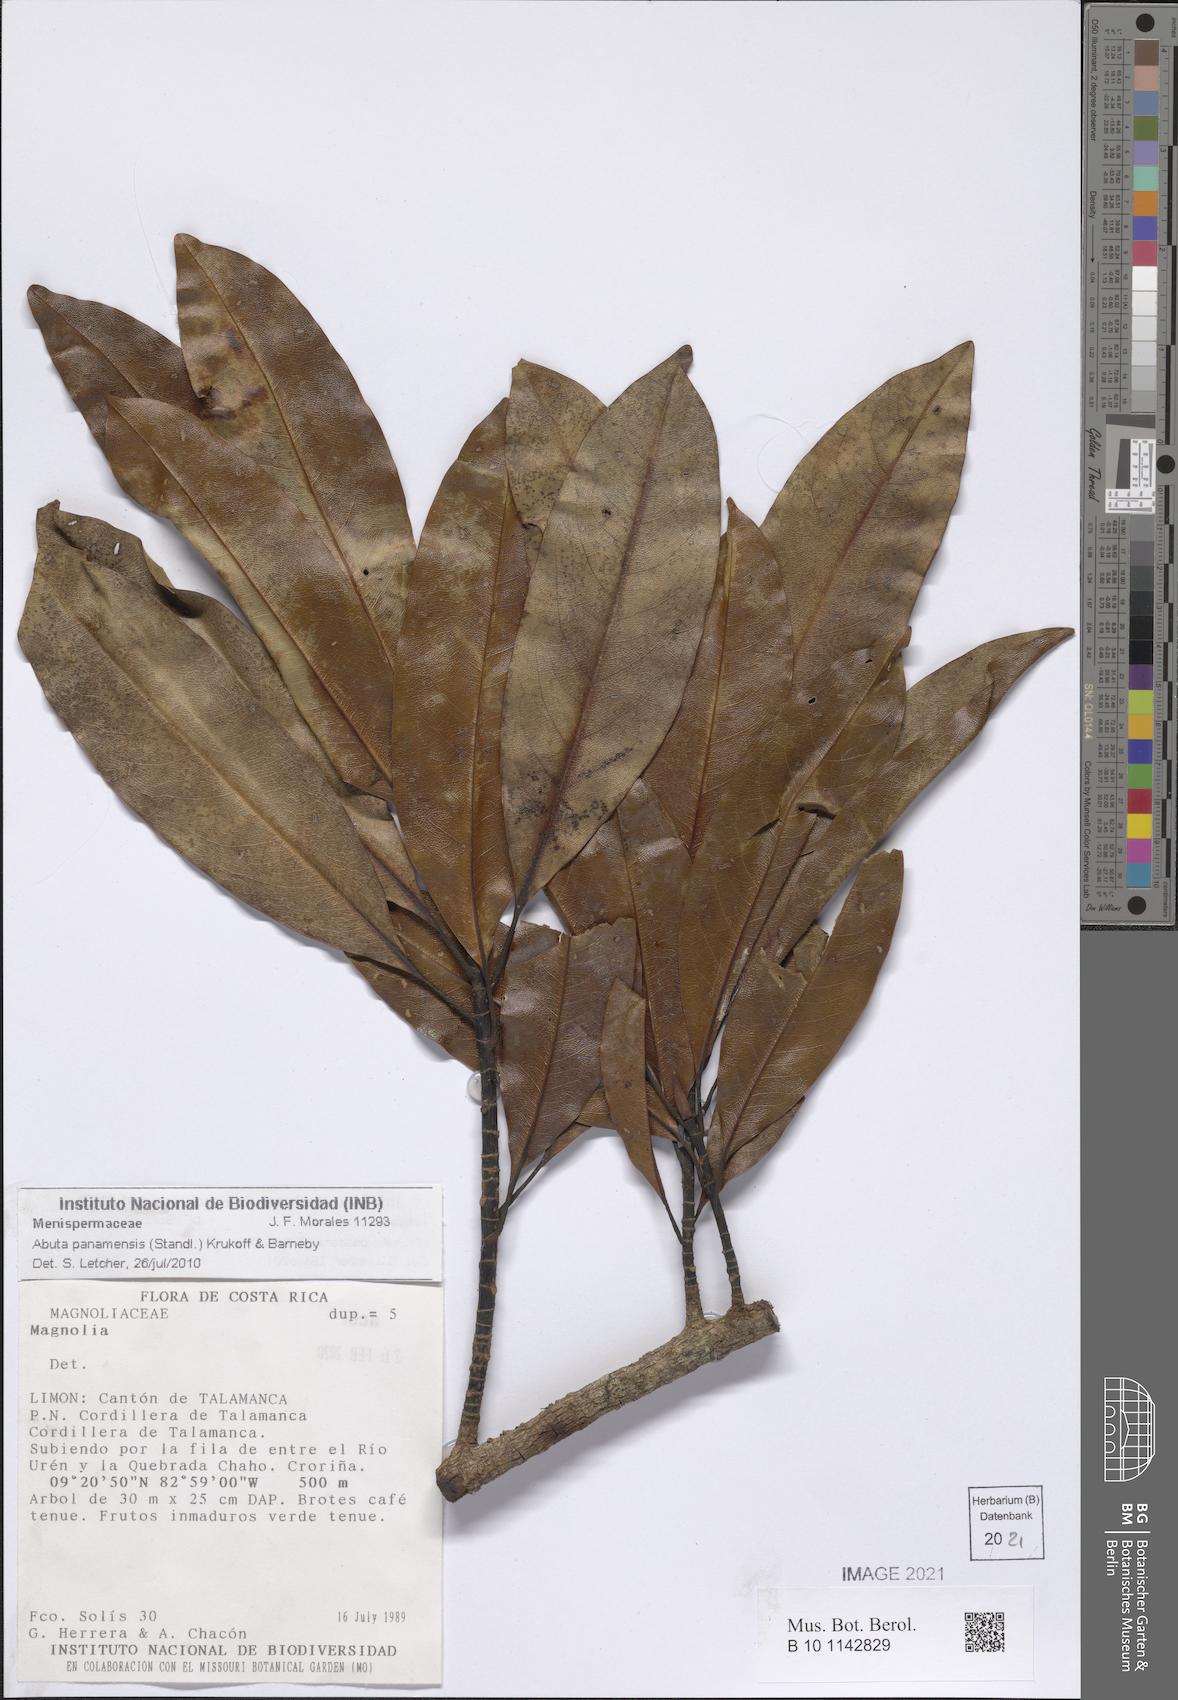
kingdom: Plantae
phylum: Tracheophyta
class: Magnoliopsida
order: Ranunculales
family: Menispermaceae
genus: Abuta
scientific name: Abuta panamensis
